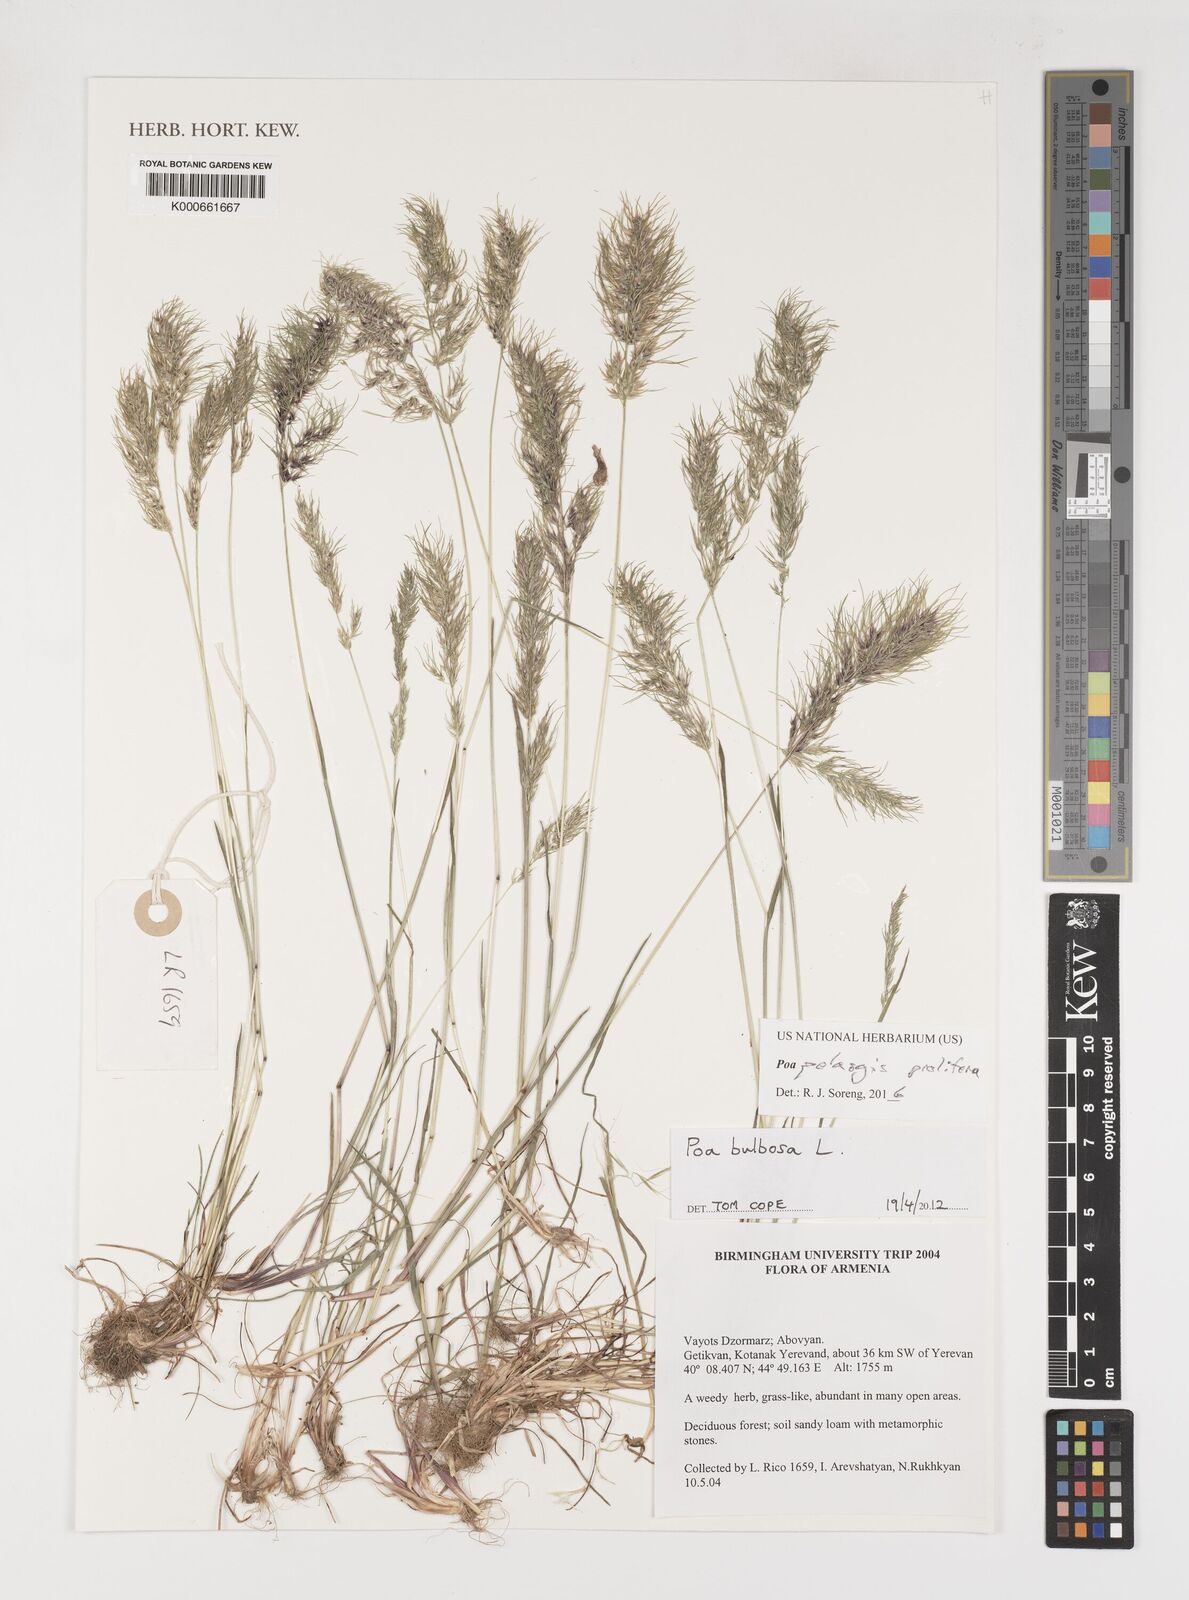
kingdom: Plantae
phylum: Tracheophyta
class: Liliopsida
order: Poales
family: Poaceae
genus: Poa
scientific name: Poa
